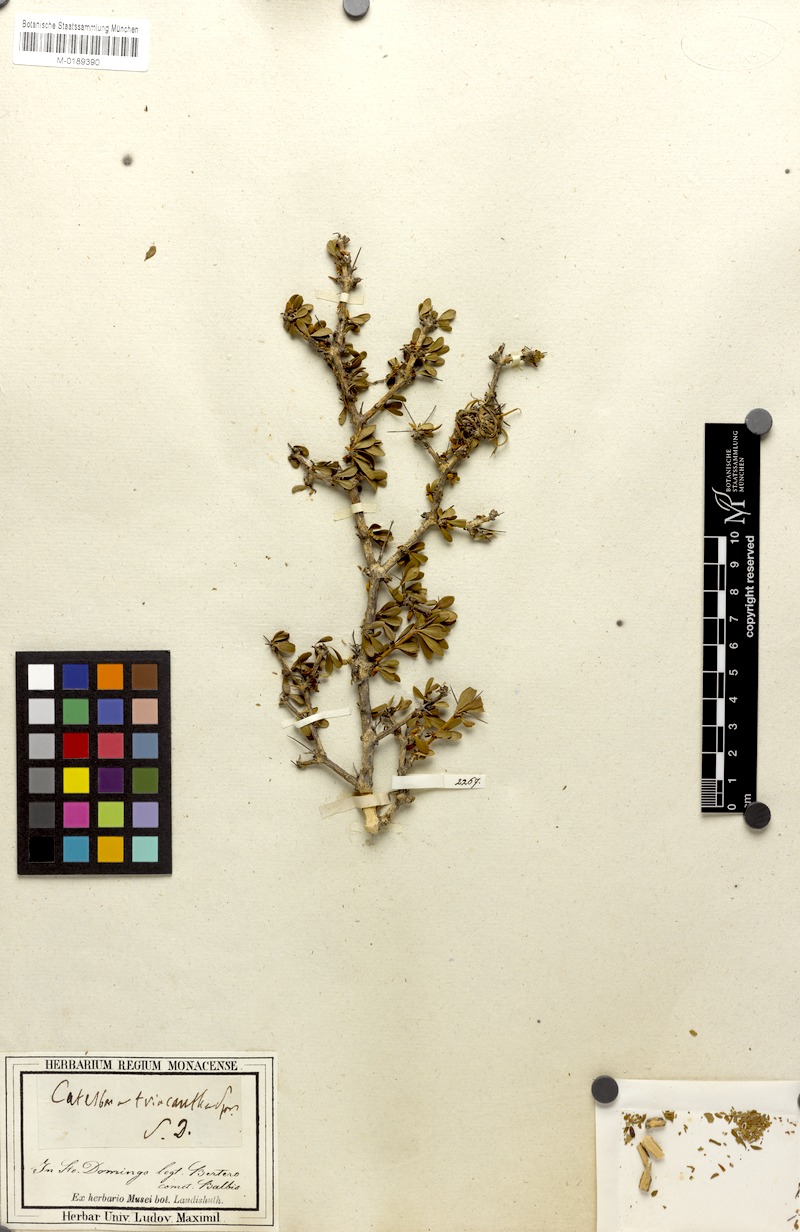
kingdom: Plantae
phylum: Tracheophyta
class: Magnoliopsida
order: Gentianales
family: Rubiaceae
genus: Scolosanthus
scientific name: Scolosanthus triacanthus
